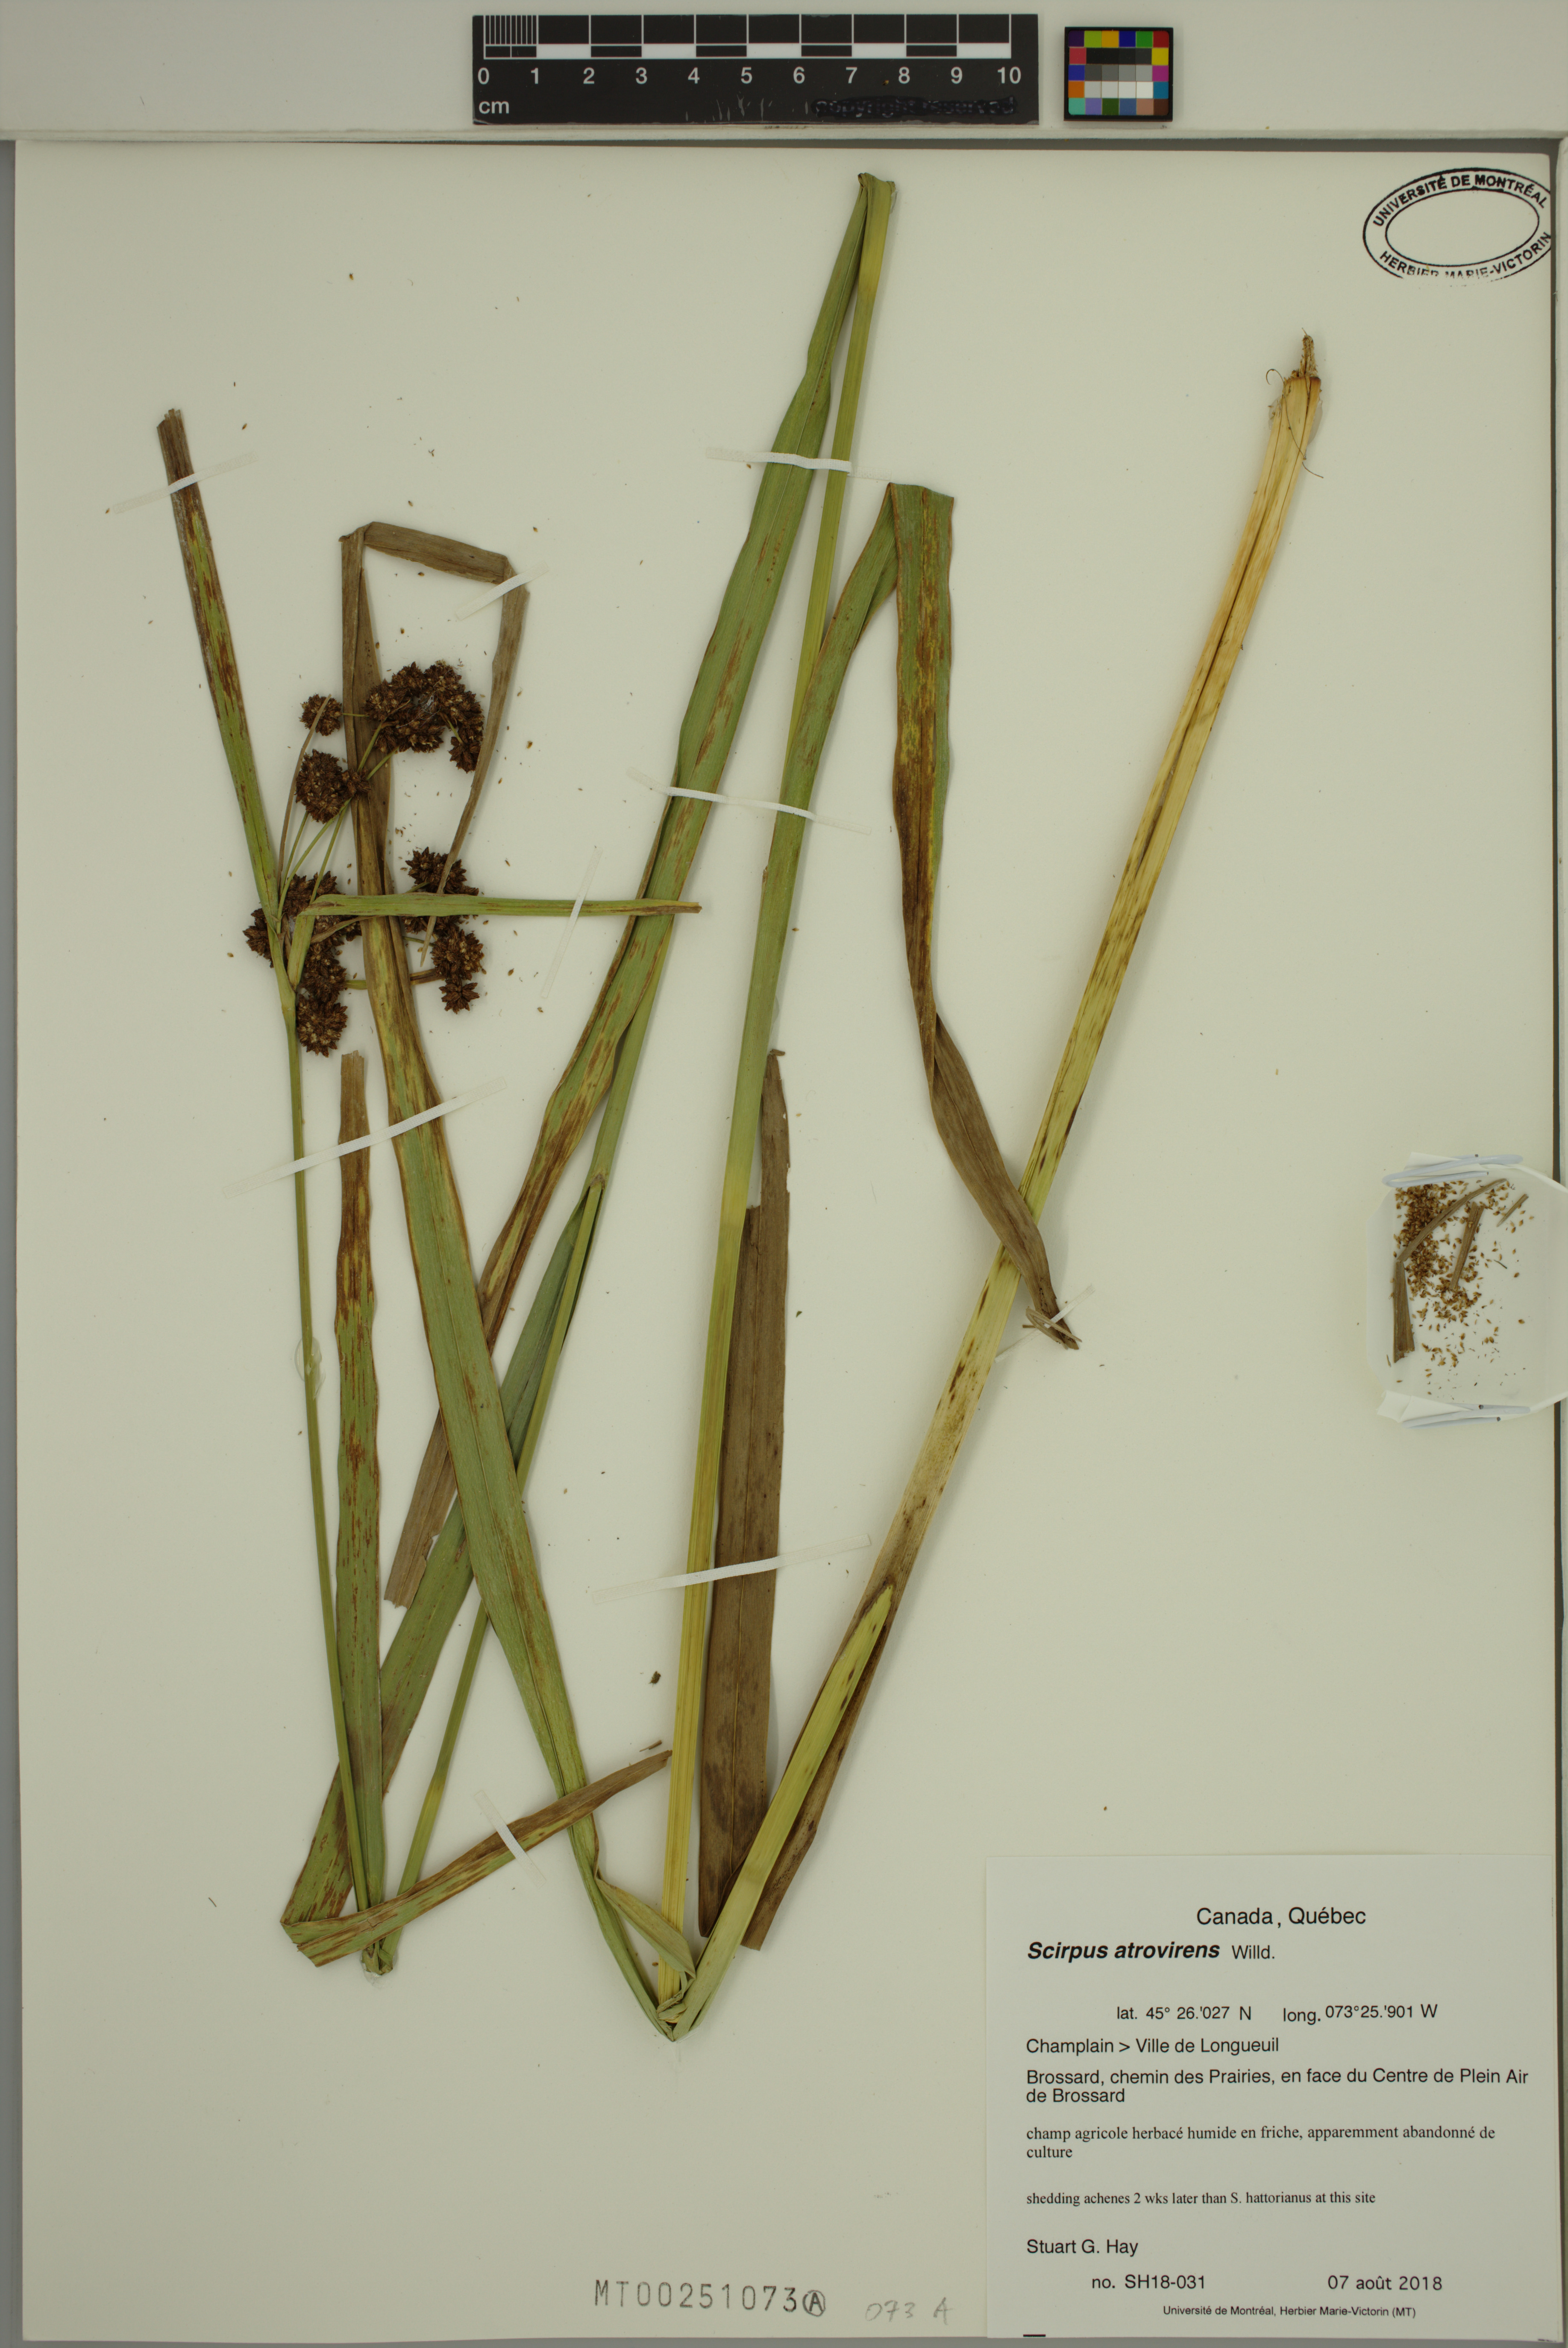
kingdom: Plantae
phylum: Tracheophyta
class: Liliopsida
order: Poales
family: Cyperaceae
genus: Scirpus
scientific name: Scirpus atrovirens
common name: Black bulrush
